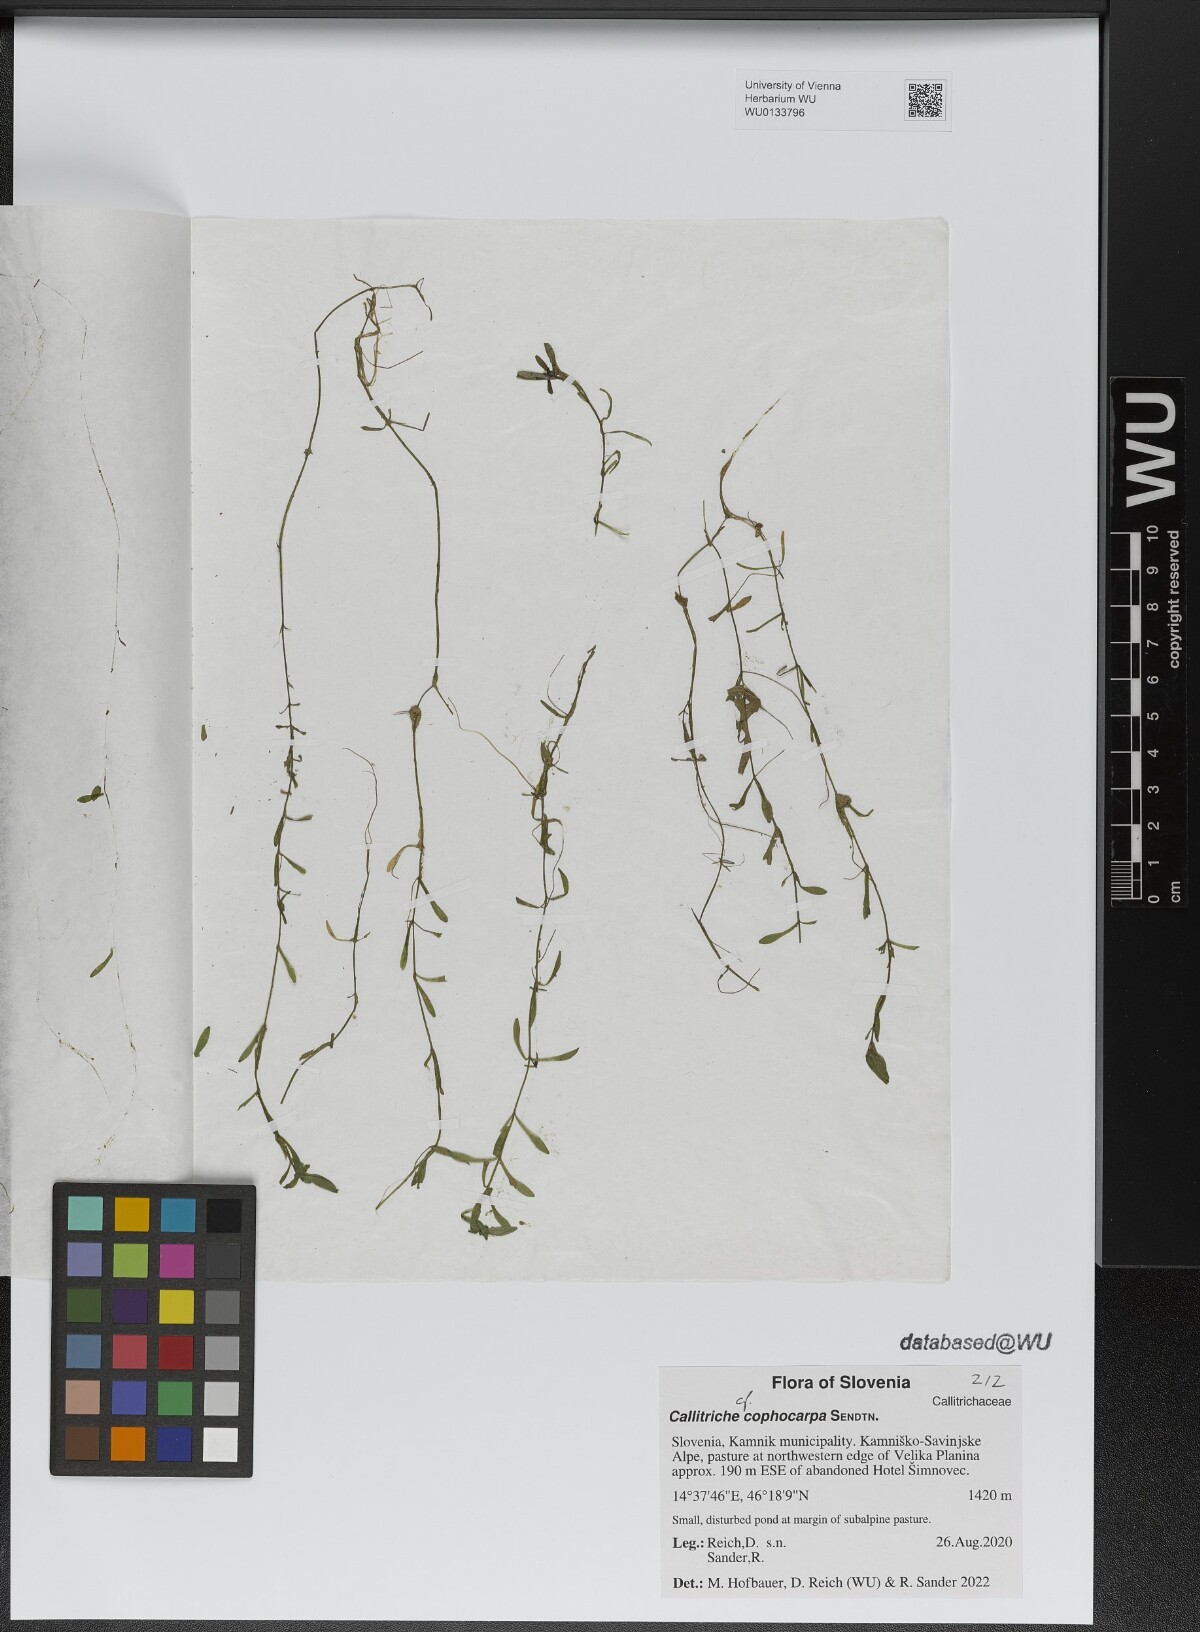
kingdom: Plantae
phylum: Tracheophyta
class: Magnoliopsida
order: Lamiales
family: Plantaginaceae
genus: Callitriche
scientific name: Callitriche cophocarpa
